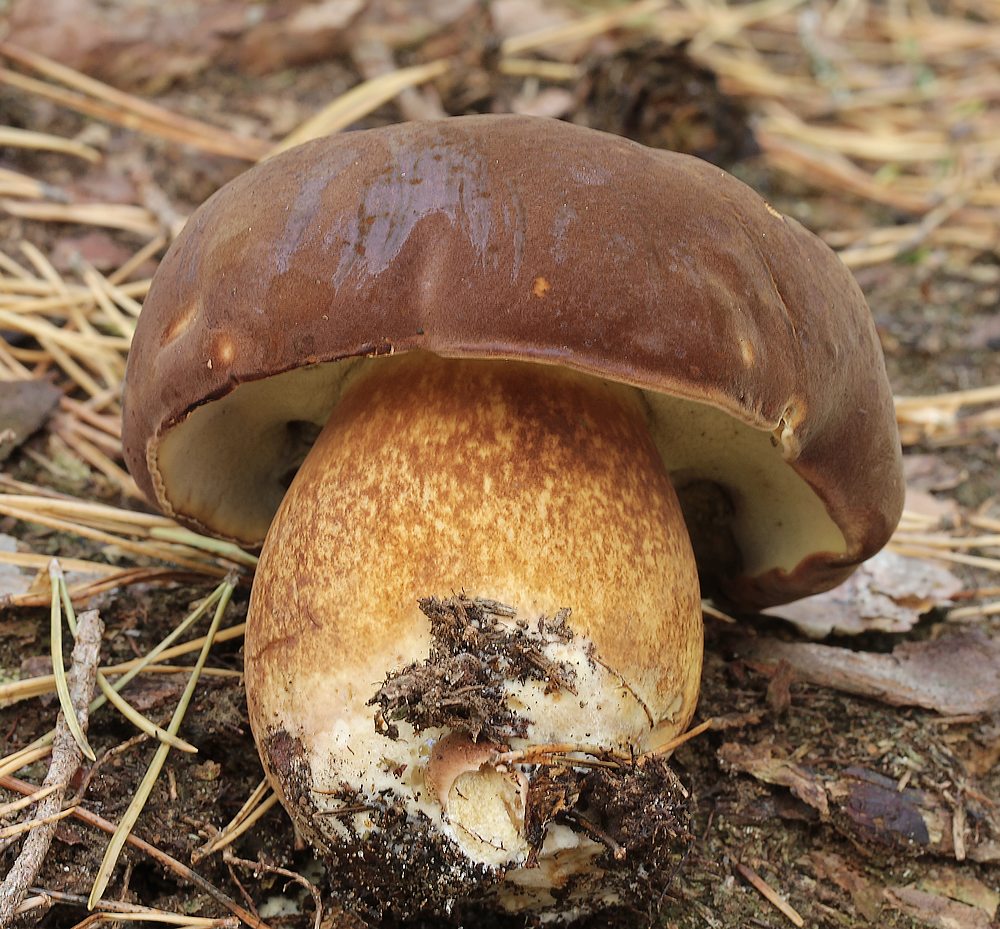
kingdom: Fungi
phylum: Basidiomycota
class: Agaricomycetes
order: Boletales
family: Boletaceae
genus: Imleria
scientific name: Imleria badia
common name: brunstokket rørhat
